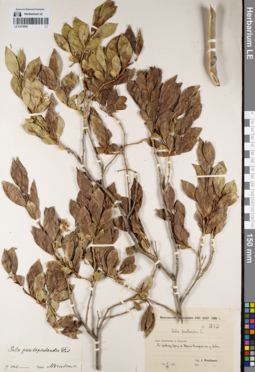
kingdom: Plantae
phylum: Tracheophyta
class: Magnoliopsida
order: Malpighiales
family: Salicaceae
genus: Salix
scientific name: Salix pseudopentandra
